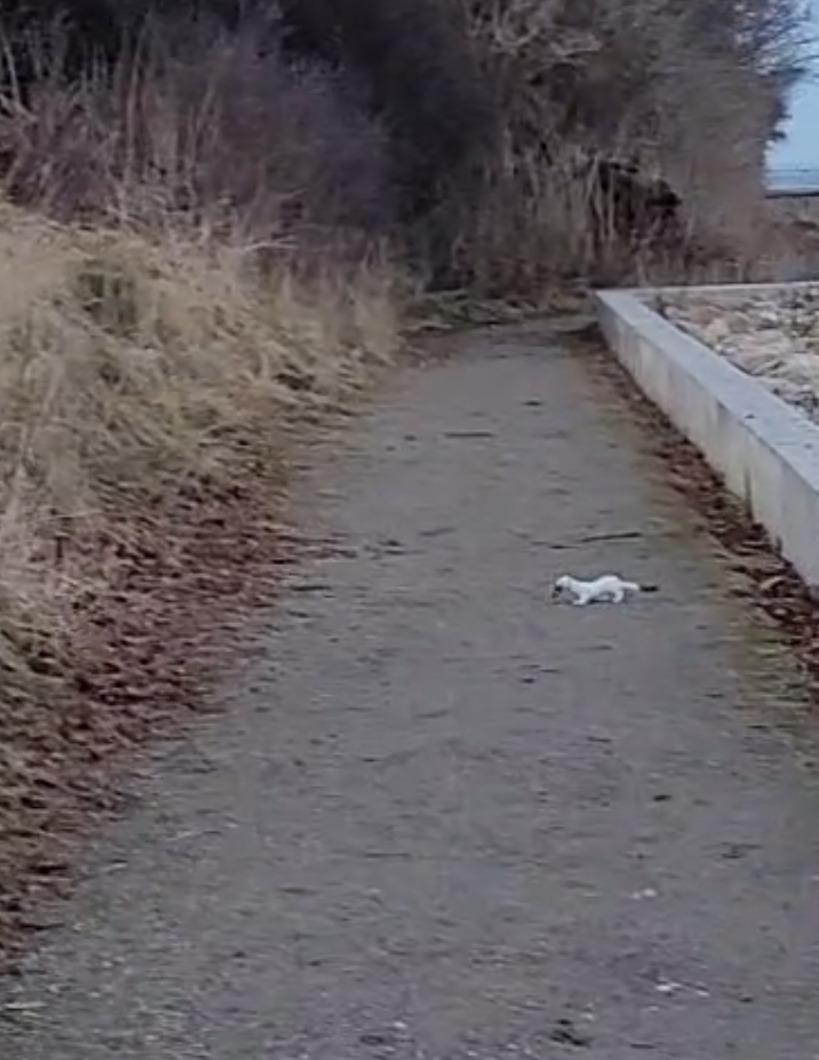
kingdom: Animalia
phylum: Chordata
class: Mammalia
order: Carnivora
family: Mustelidae
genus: Mustela
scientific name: Mustela erminea
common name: Lækat
